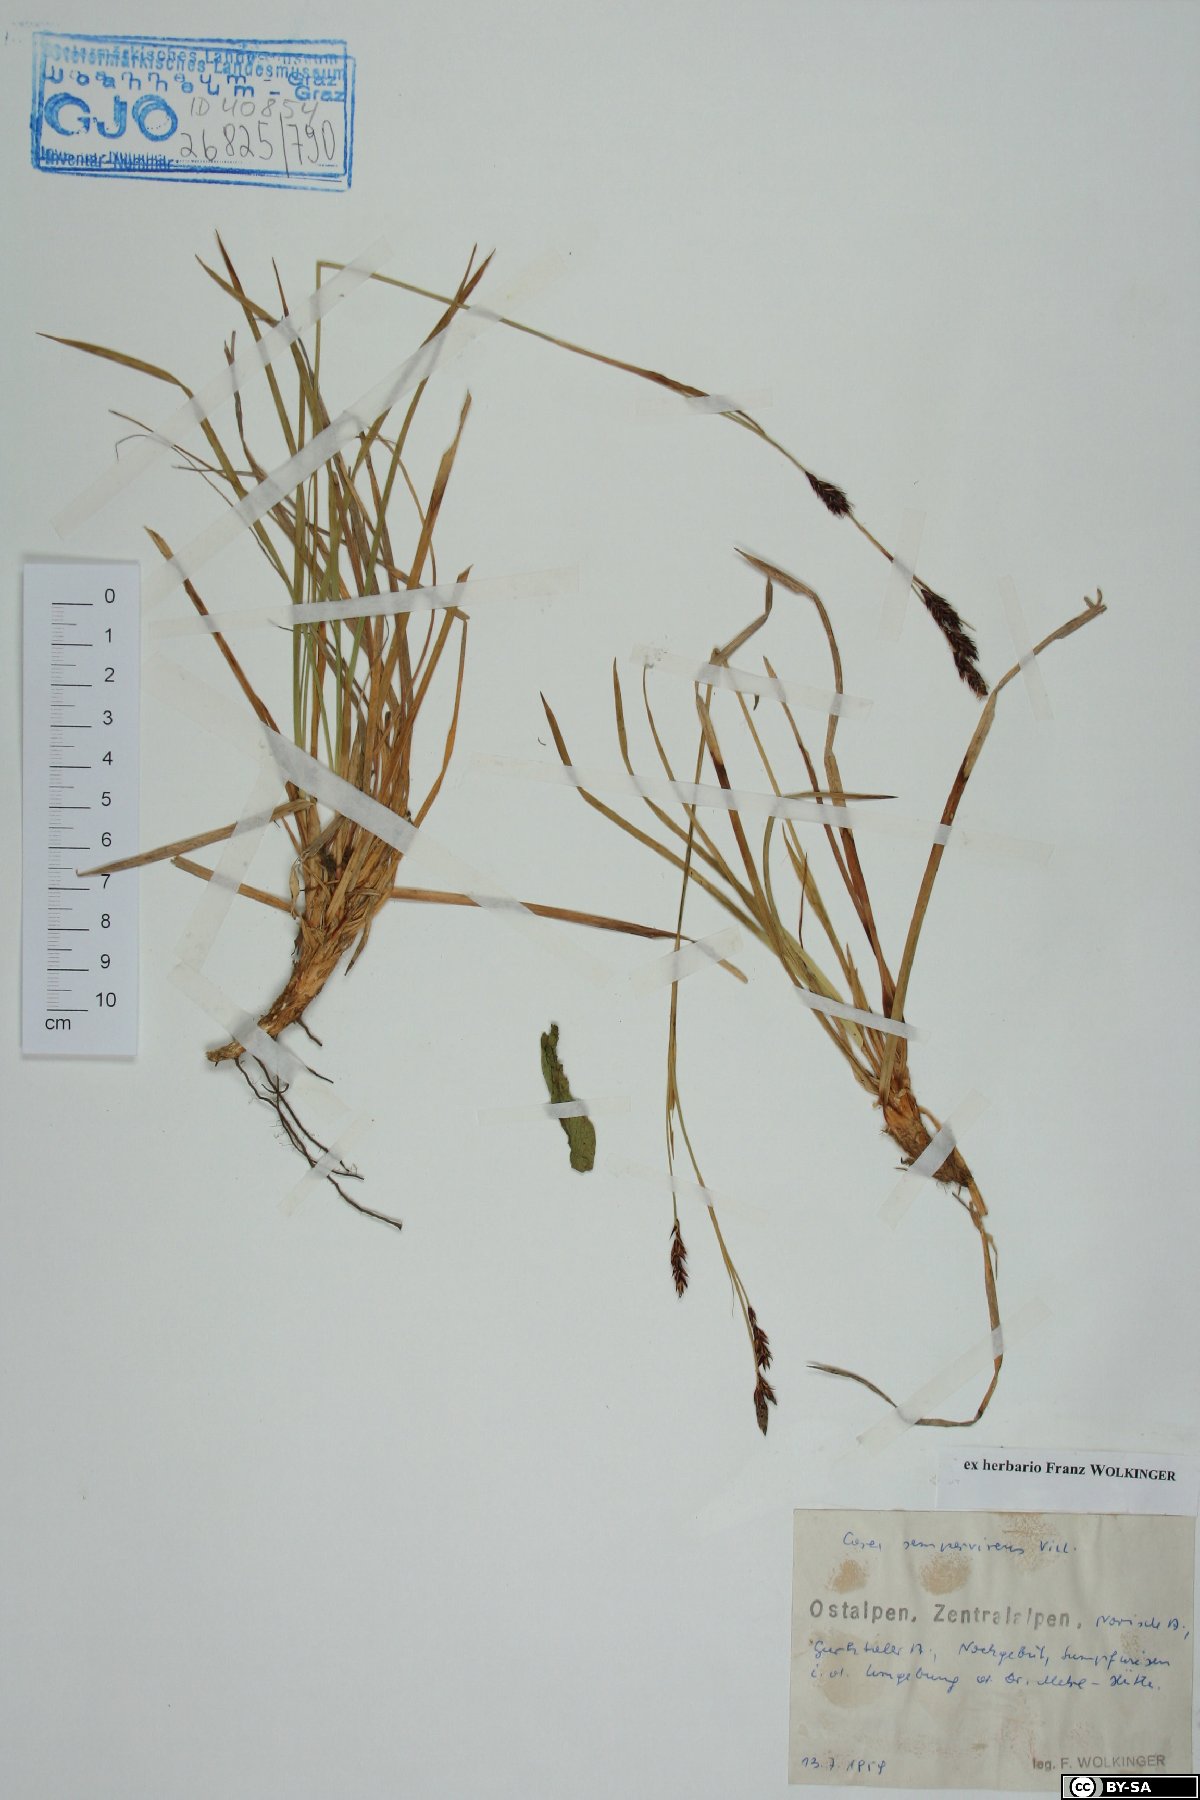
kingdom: Plantae
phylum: Tracheophyta
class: Liliopsida
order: Poales
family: Cyperaceae
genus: Carex
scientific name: Carex sempervirens
